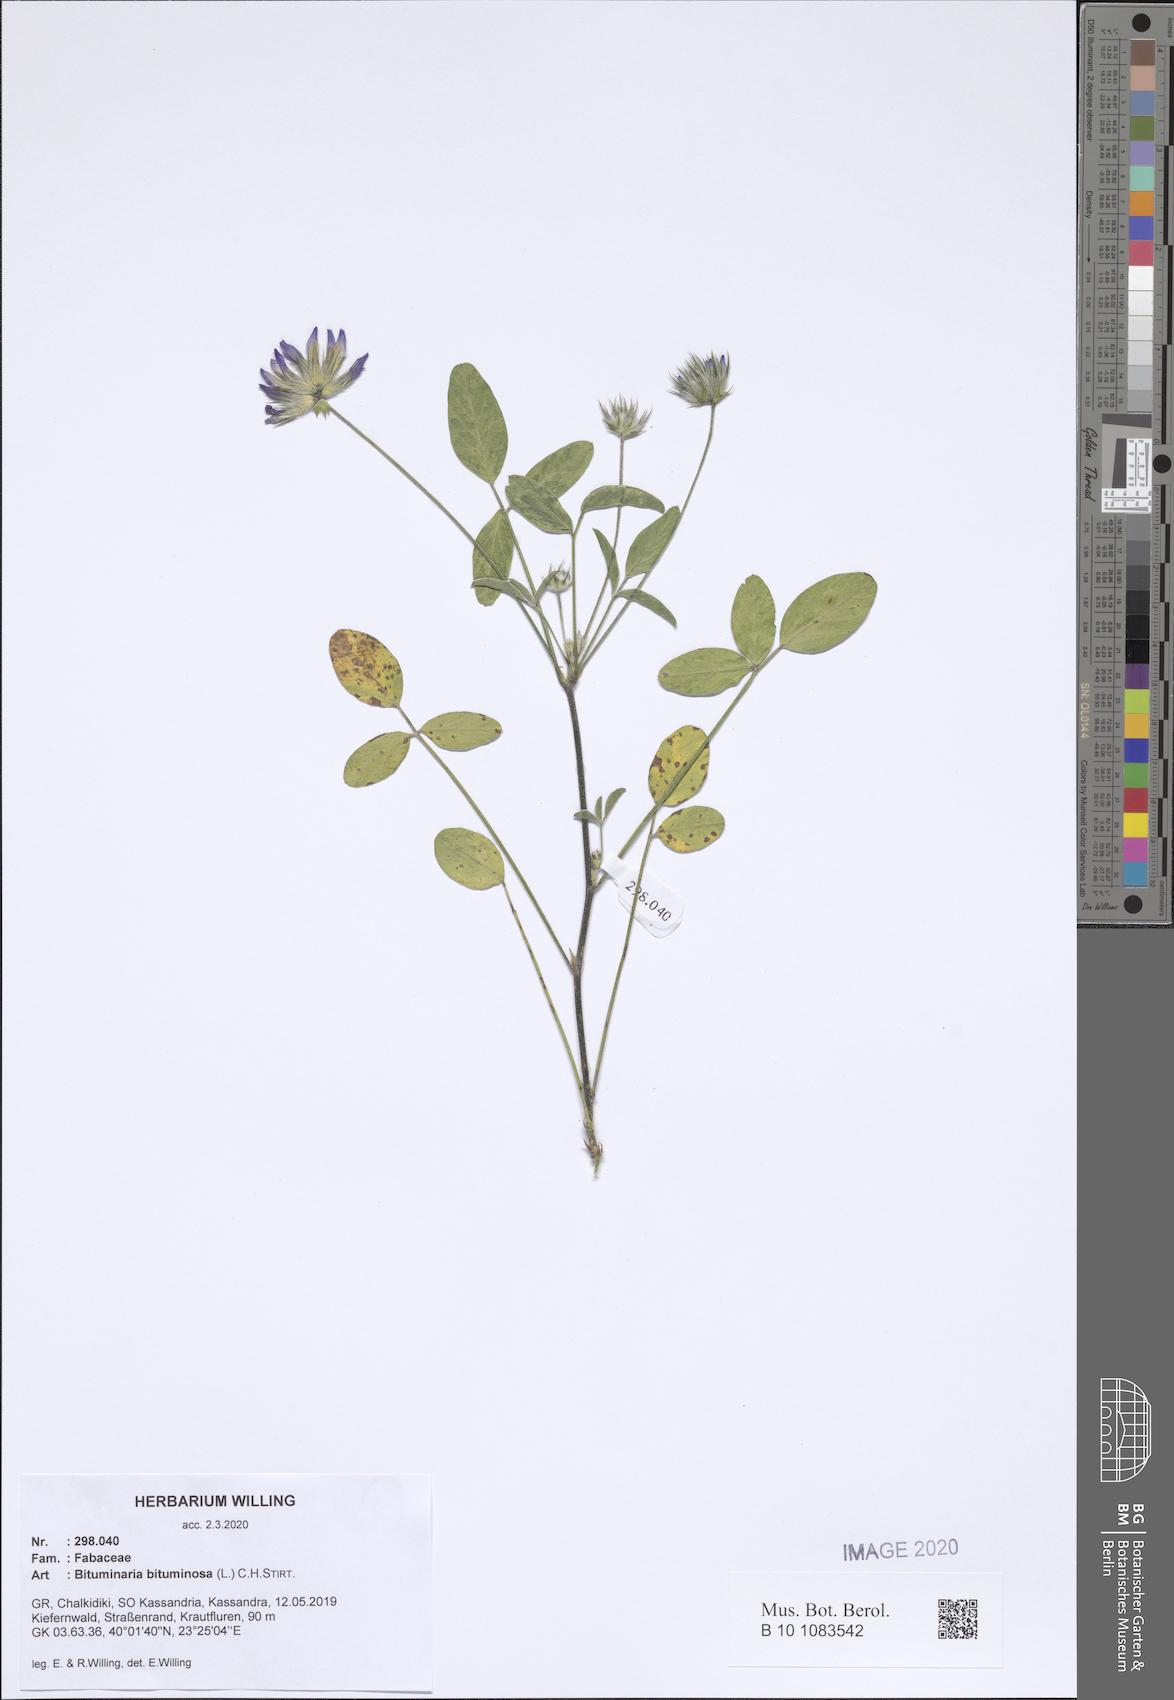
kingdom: Plantae
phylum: Tracheophyta
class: Magnoliopsida
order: Fabales
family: Fabaceae
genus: Bituminaria
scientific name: Bituminaria bituminosa
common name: Arabian pea
